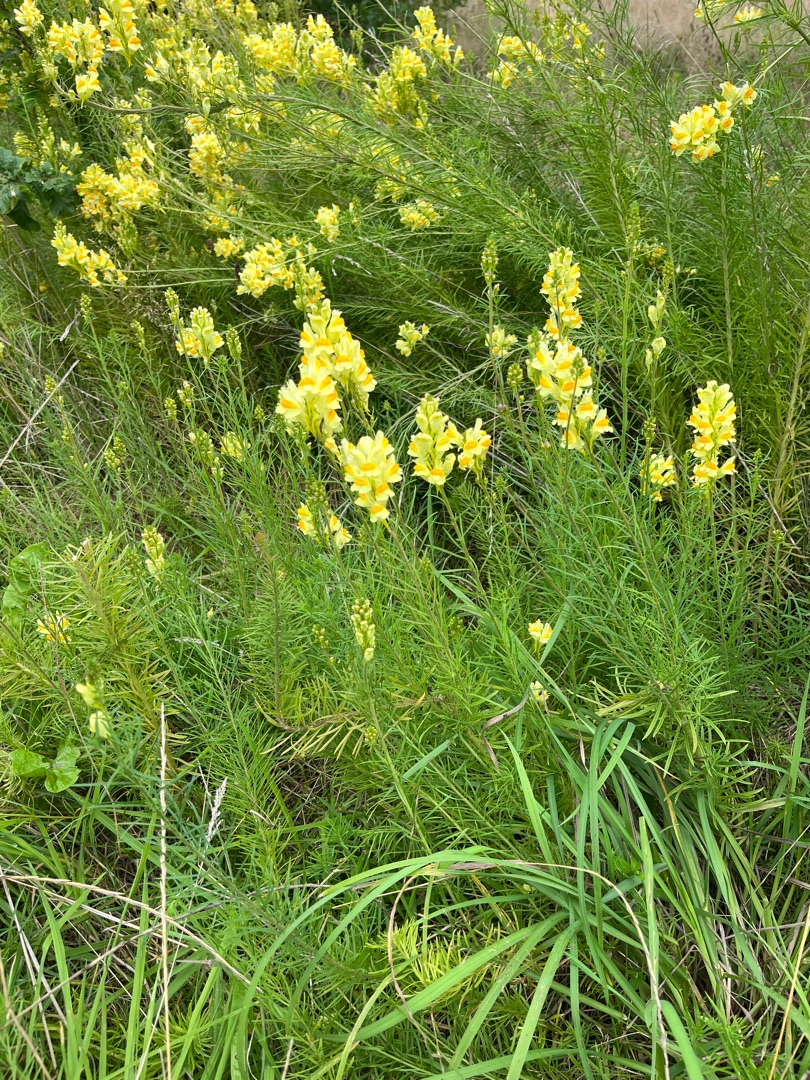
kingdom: Plantae
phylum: Tracheophyta
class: Magnoliopsida
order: Lamiales
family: Plantaginaceae
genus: Linaria
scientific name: Linaria vulgaris
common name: Almindelig torskemund
